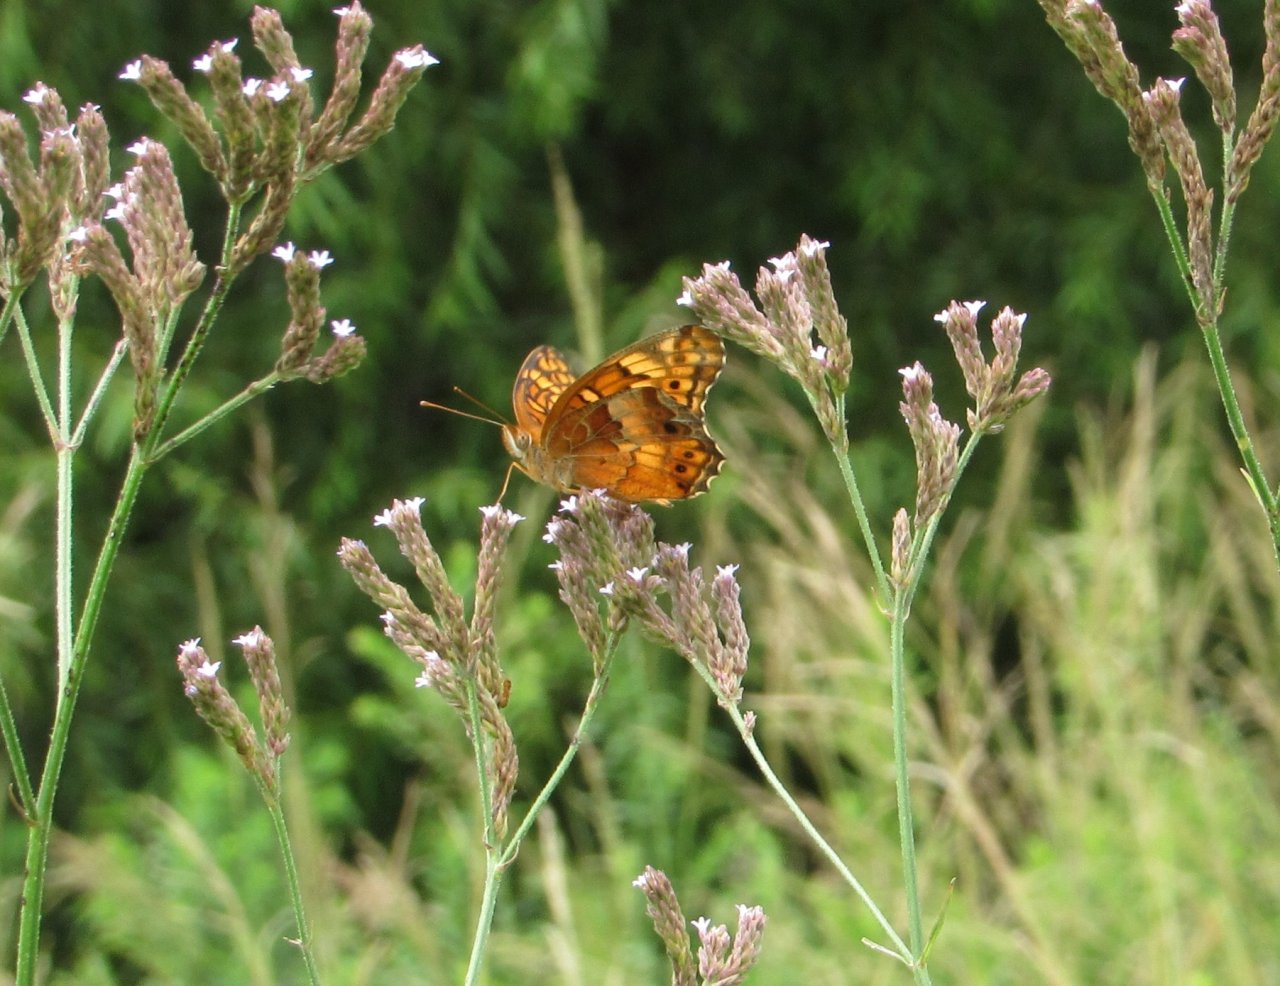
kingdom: Animalia
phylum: Arthropoda
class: Insecta
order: Lepidoptera
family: Nymphalidae
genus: Euptoieta
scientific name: Euptoieta claudia
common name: Variegated Fritillary
